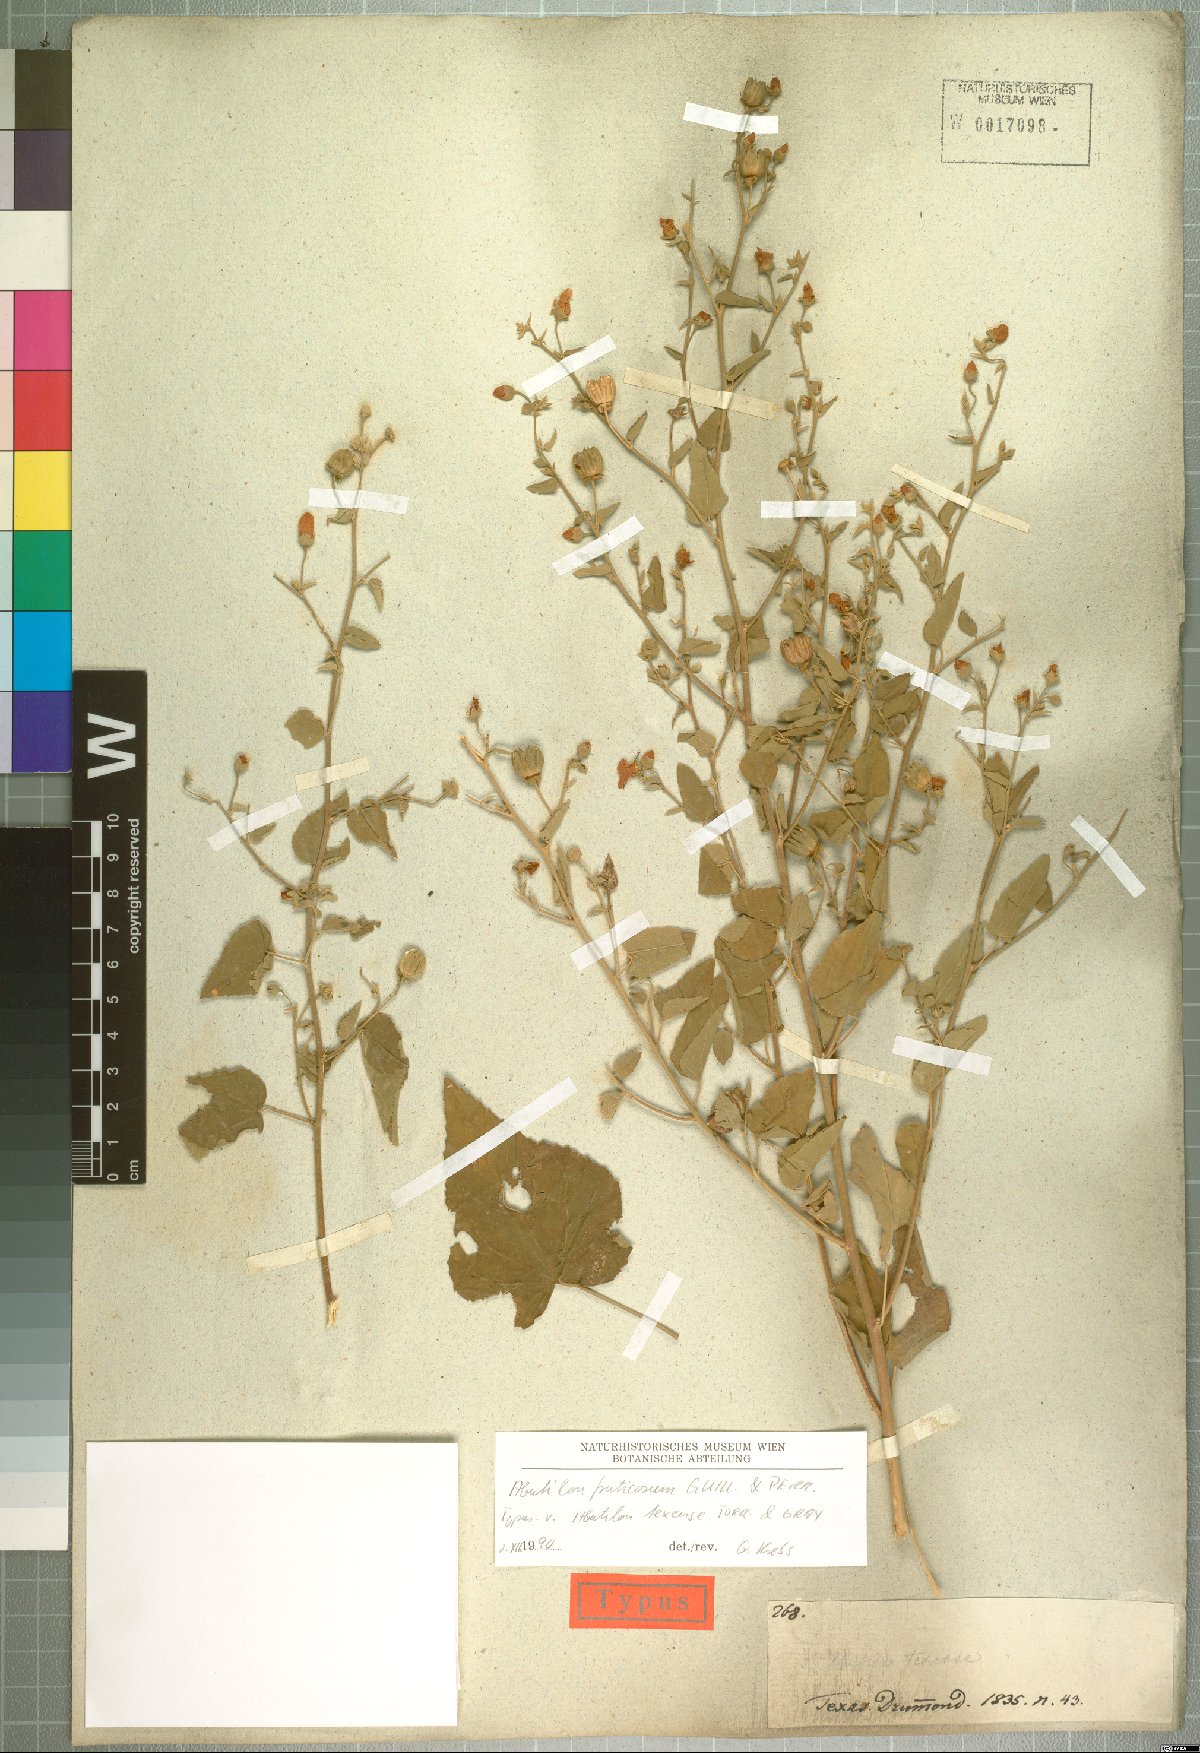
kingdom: Plantae
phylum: Tracheophyta
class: Magnoliopsida
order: Malvales
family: Malvaceae
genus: Abutilon
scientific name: Abutilon fruticosum
